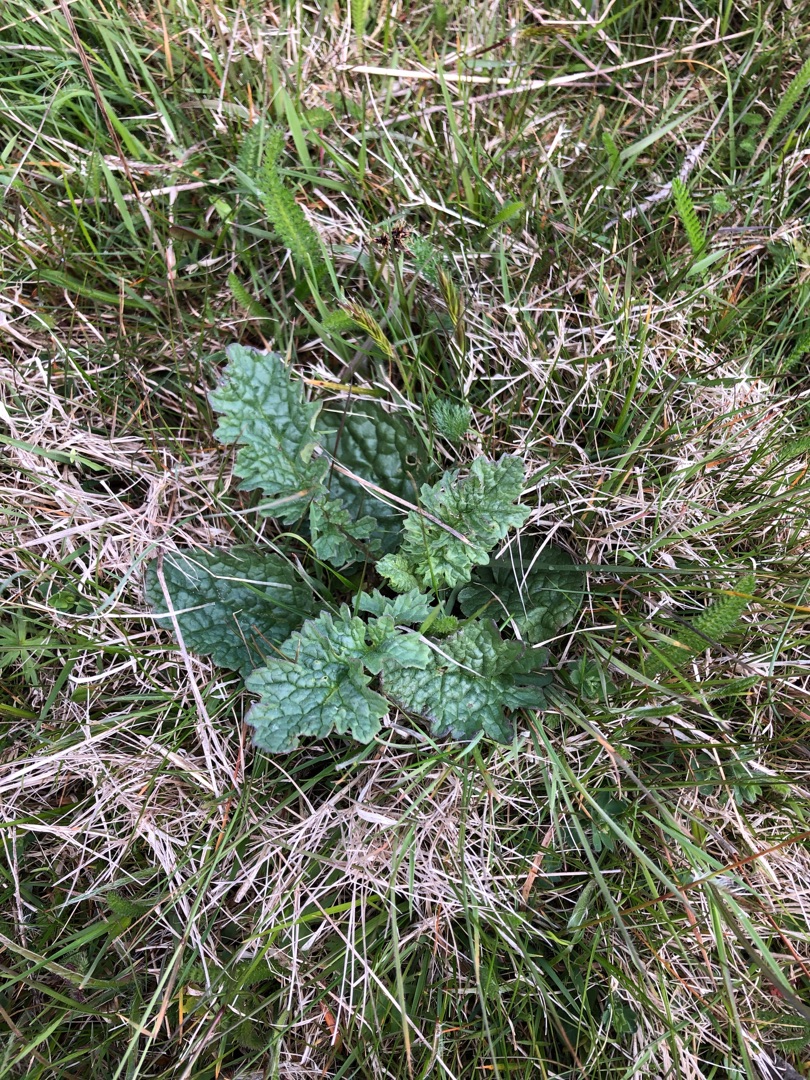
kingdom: Plantae
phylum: Tracheophyta
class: Magnoliopsida
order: Asterales
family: Asteraceae
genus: Jacobaea
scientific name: Jacobaea vulgaris
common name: Eng-brandbæger
